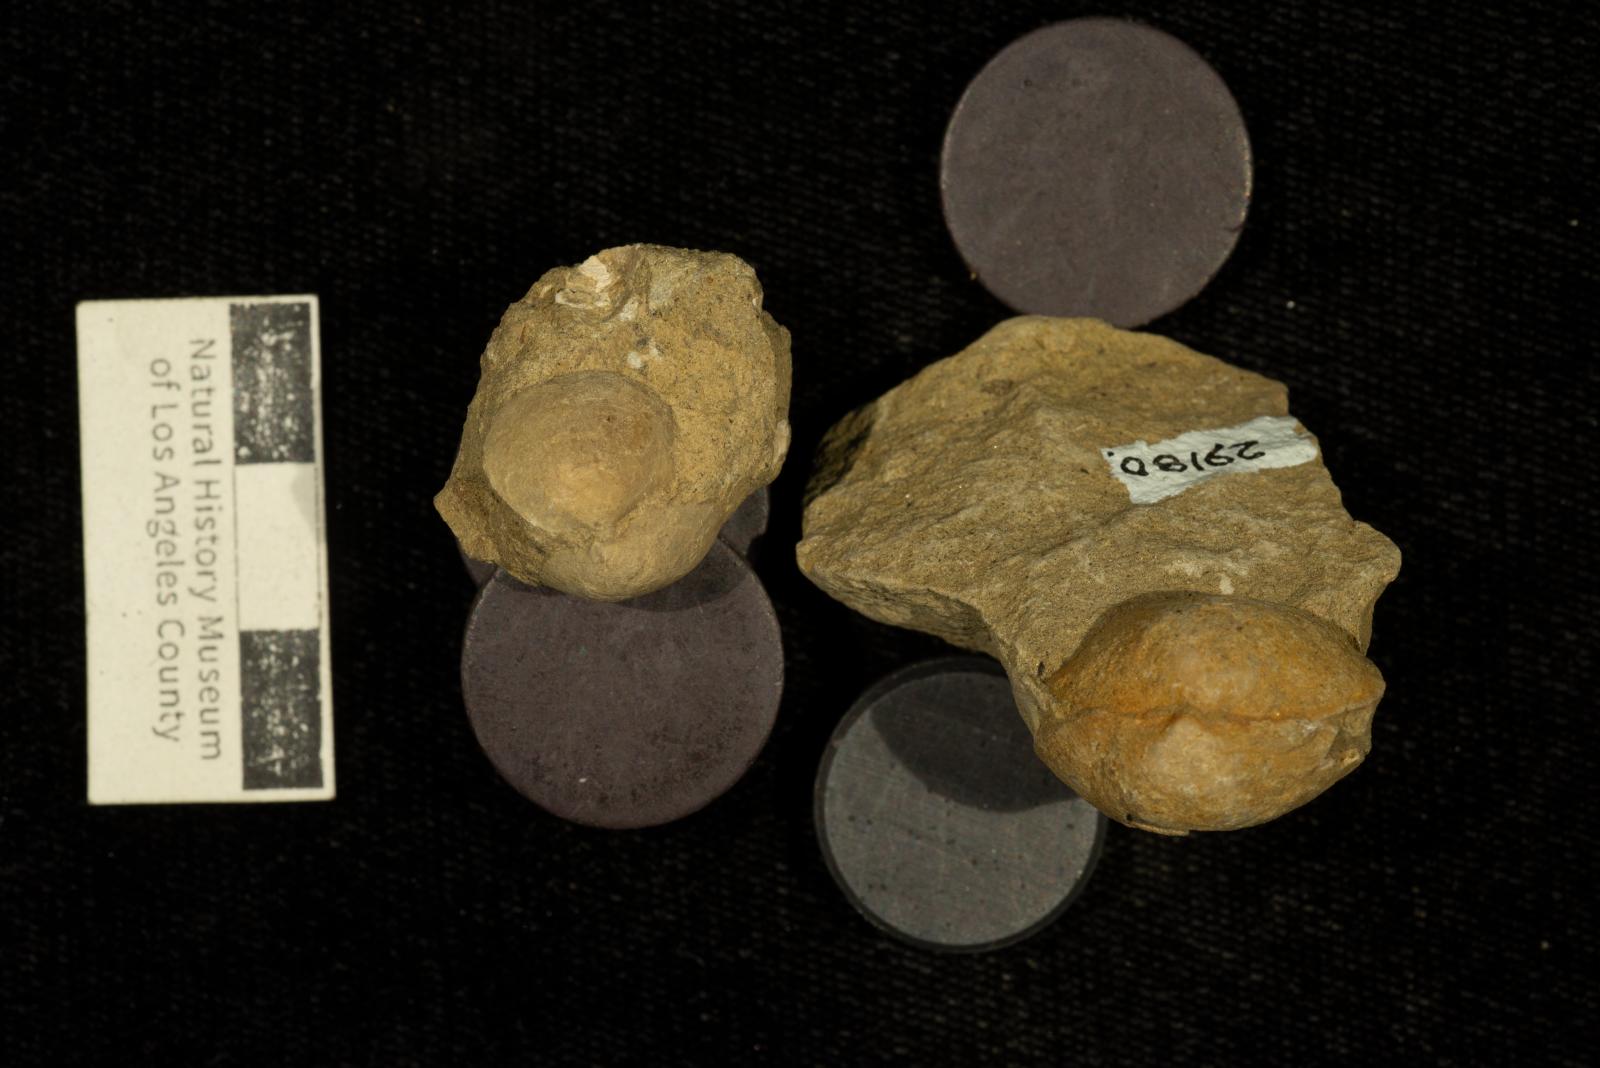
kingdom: Animalia
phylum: Mollusca
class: Bivalvia
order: Arcida
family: Glycymerididae
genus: Glycymeris
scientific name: Glycymeris Pectunculus pacificus
